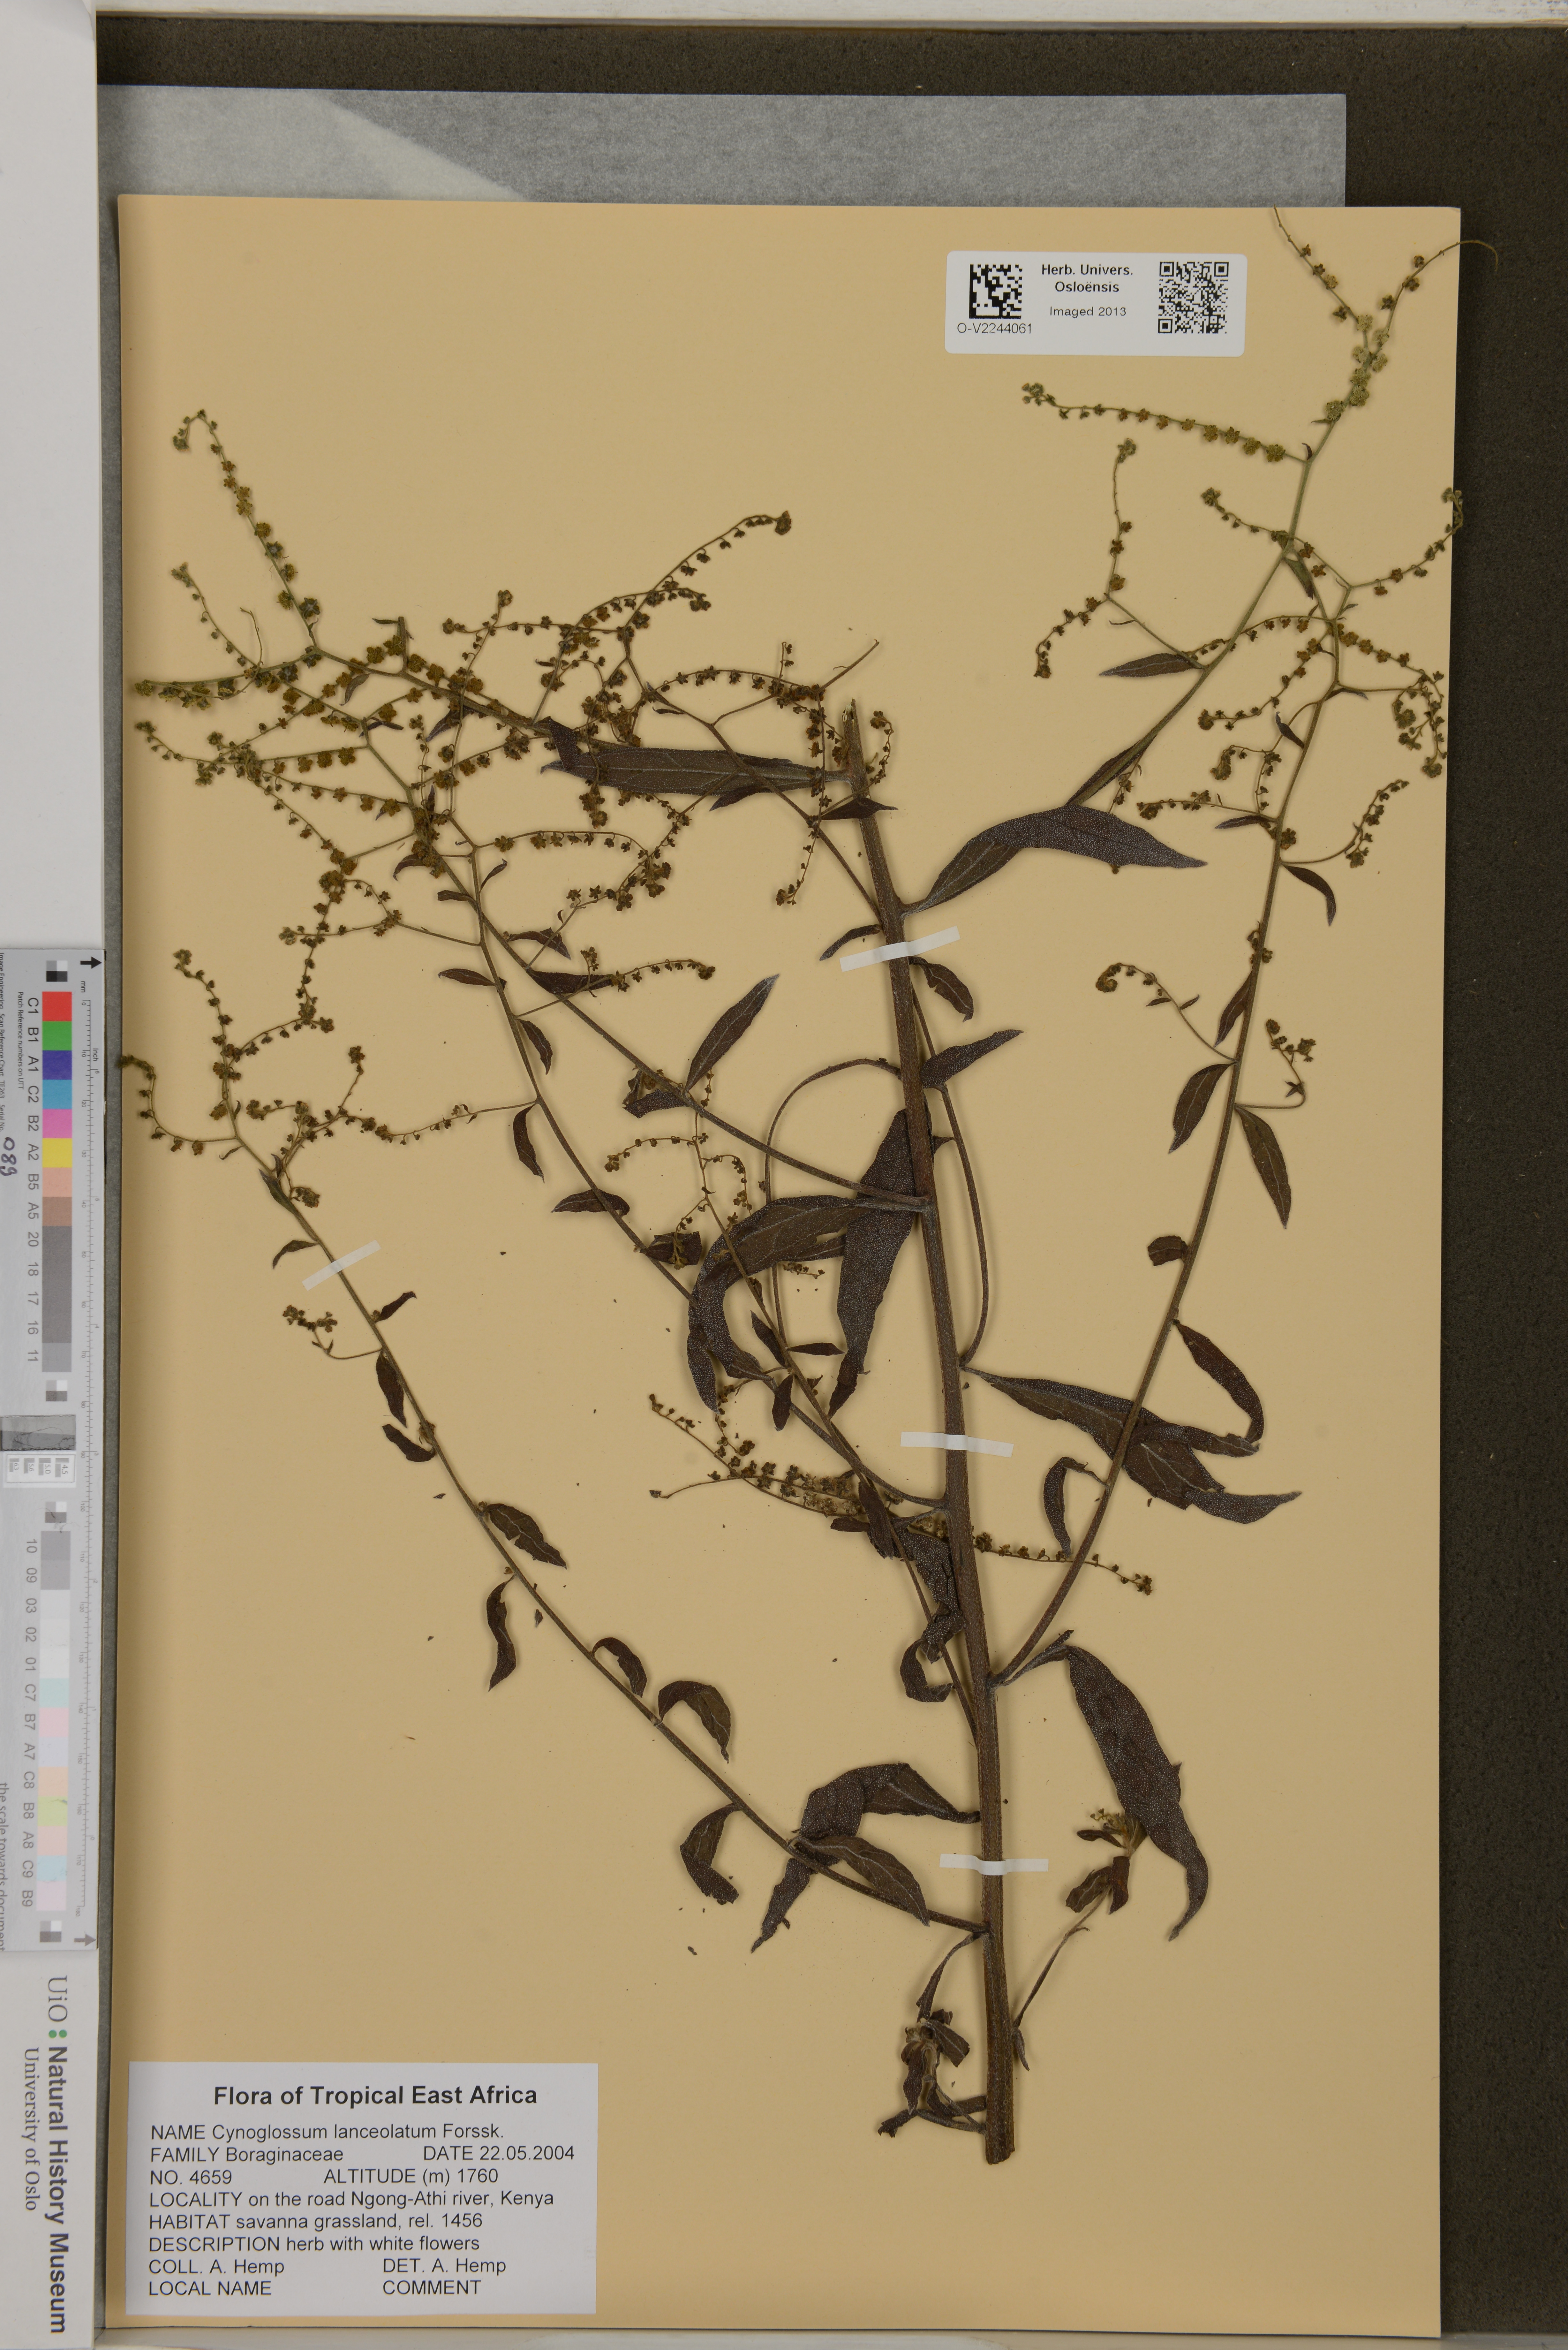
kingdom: Plantae
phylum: Tracheophyta
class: Magnoliopsida
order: Boraginales
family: Boraginaceae
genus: Cynoglossum
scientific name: Cynoglossum lanceolatum
